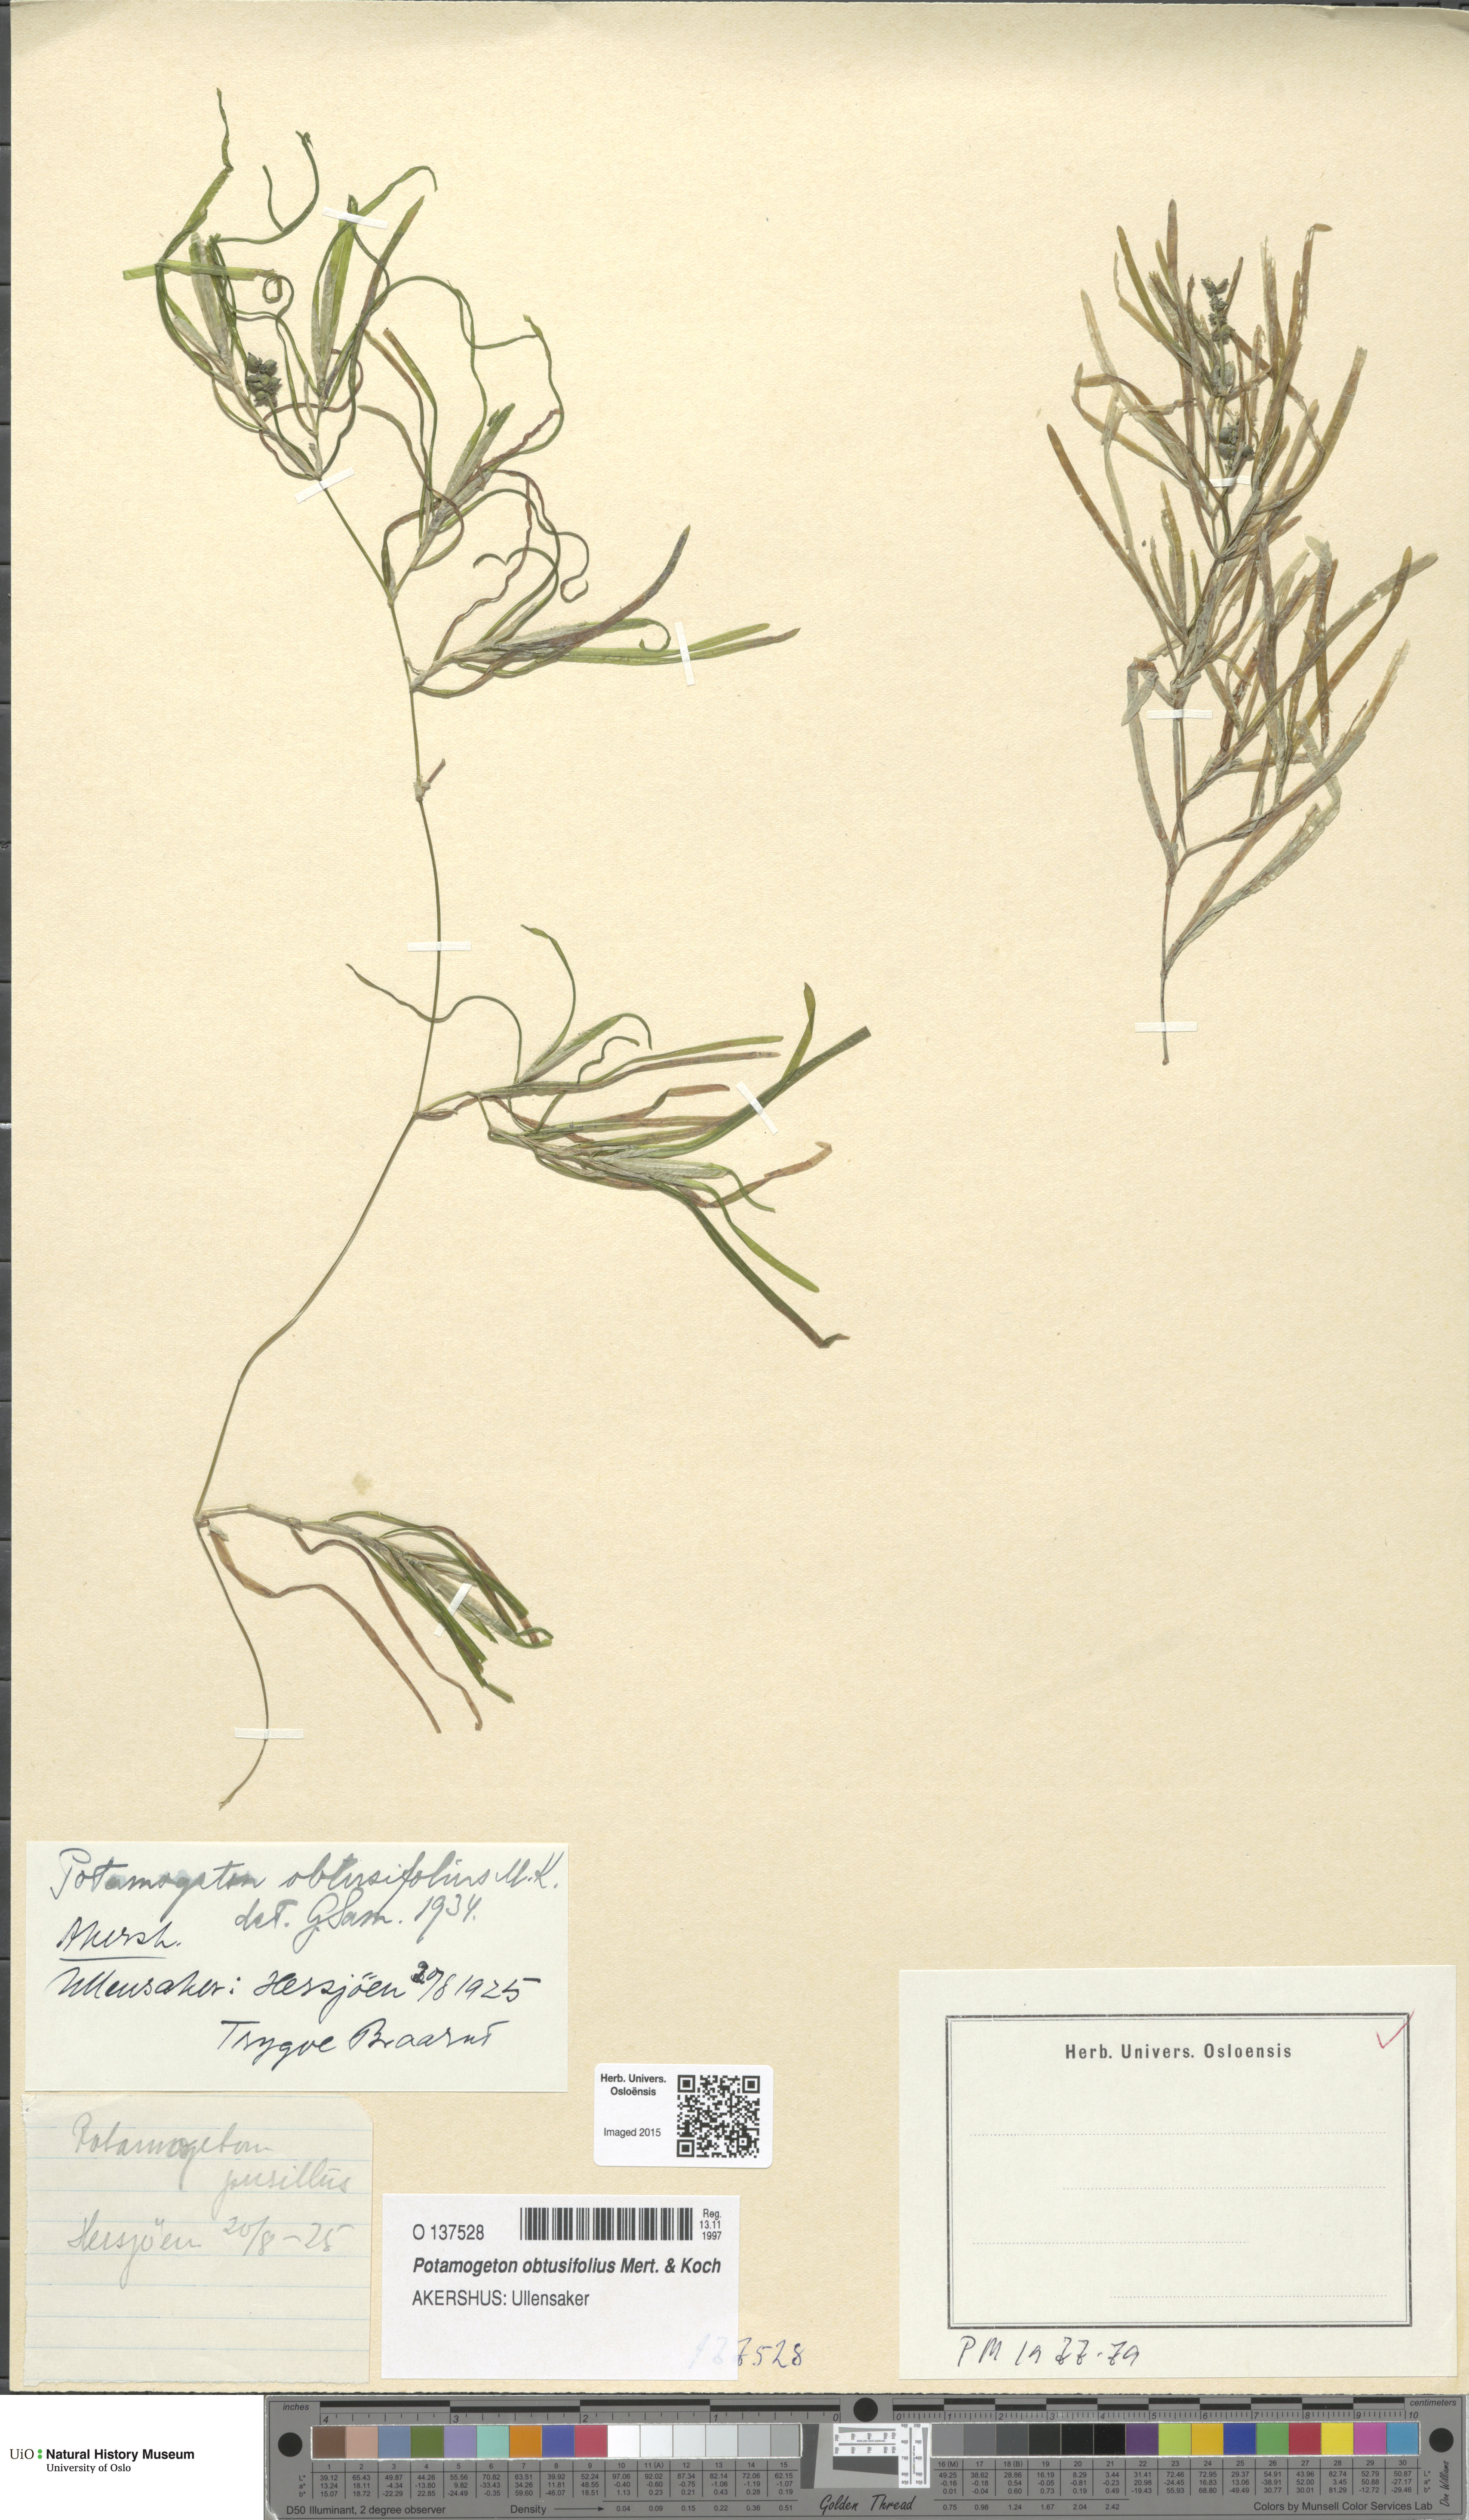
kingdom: Plantae
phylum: Tracheophyta
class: Liliopsida
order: Alismatales
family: Potamogetonaceae
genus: Potamogeton
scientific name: Potamogeton obtusifolius
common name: Blunt-leaved pondweed
